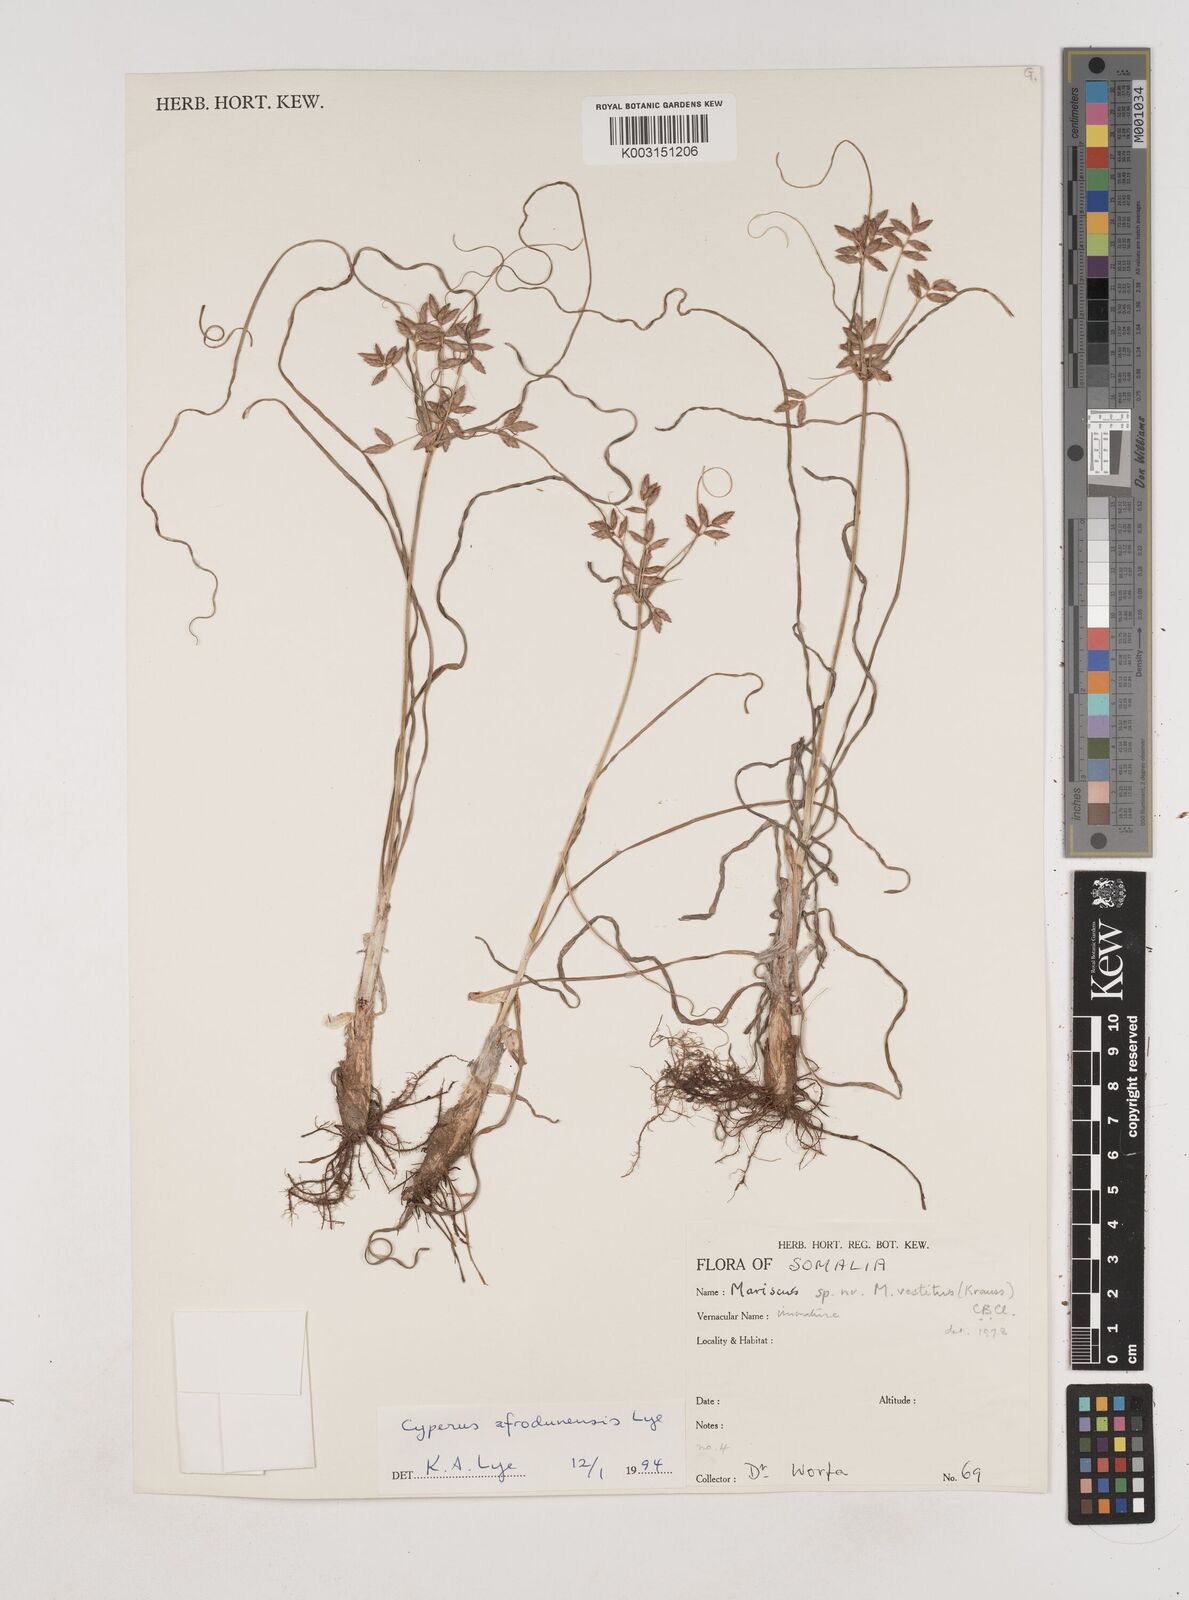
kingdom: Plantae
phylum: Tracheophyta
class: Liliopsida
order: Poales
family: Cyperaceae
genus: Cyperus
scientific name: Cyperus afrodunensis
